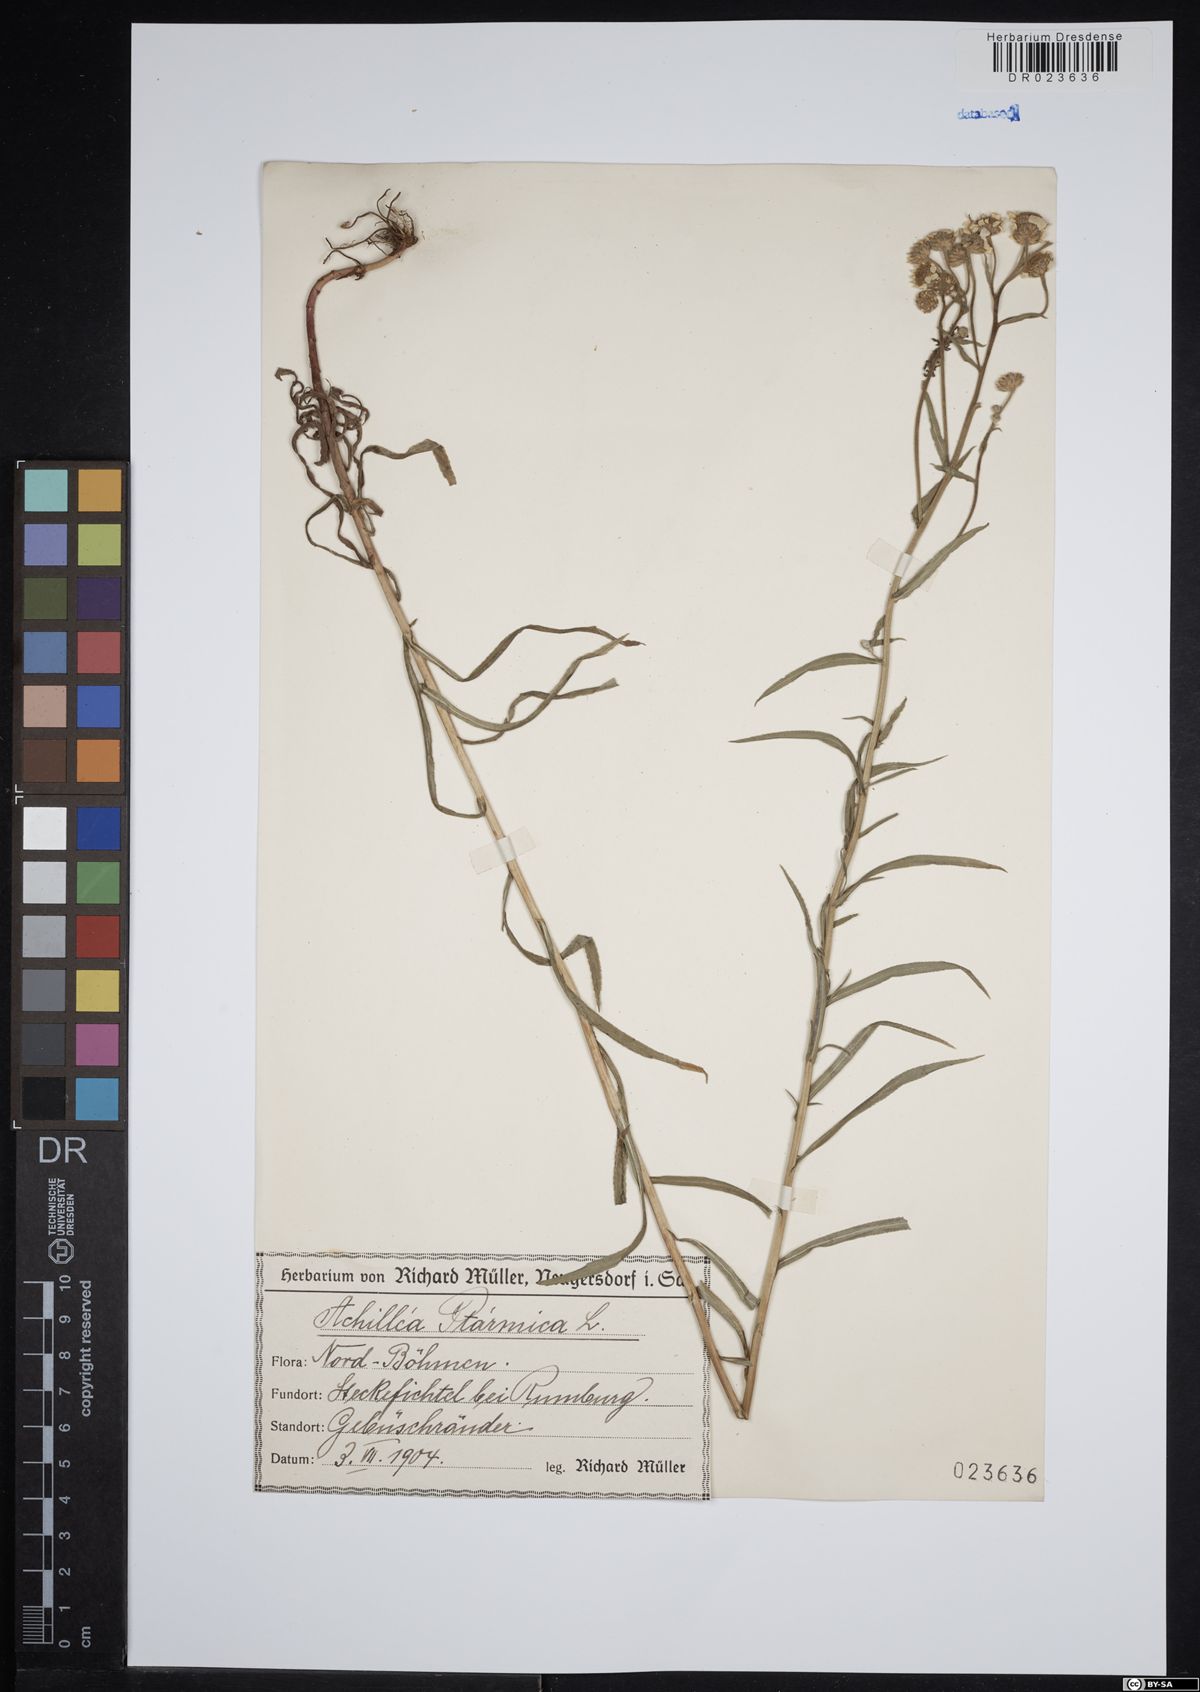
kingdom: Plantae
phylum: Tracheophyta
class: Magnoliopsida
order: Asterales
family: Asteraceae
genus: Achillea
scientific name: Achillea ptarmica
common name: Sneezeweed
